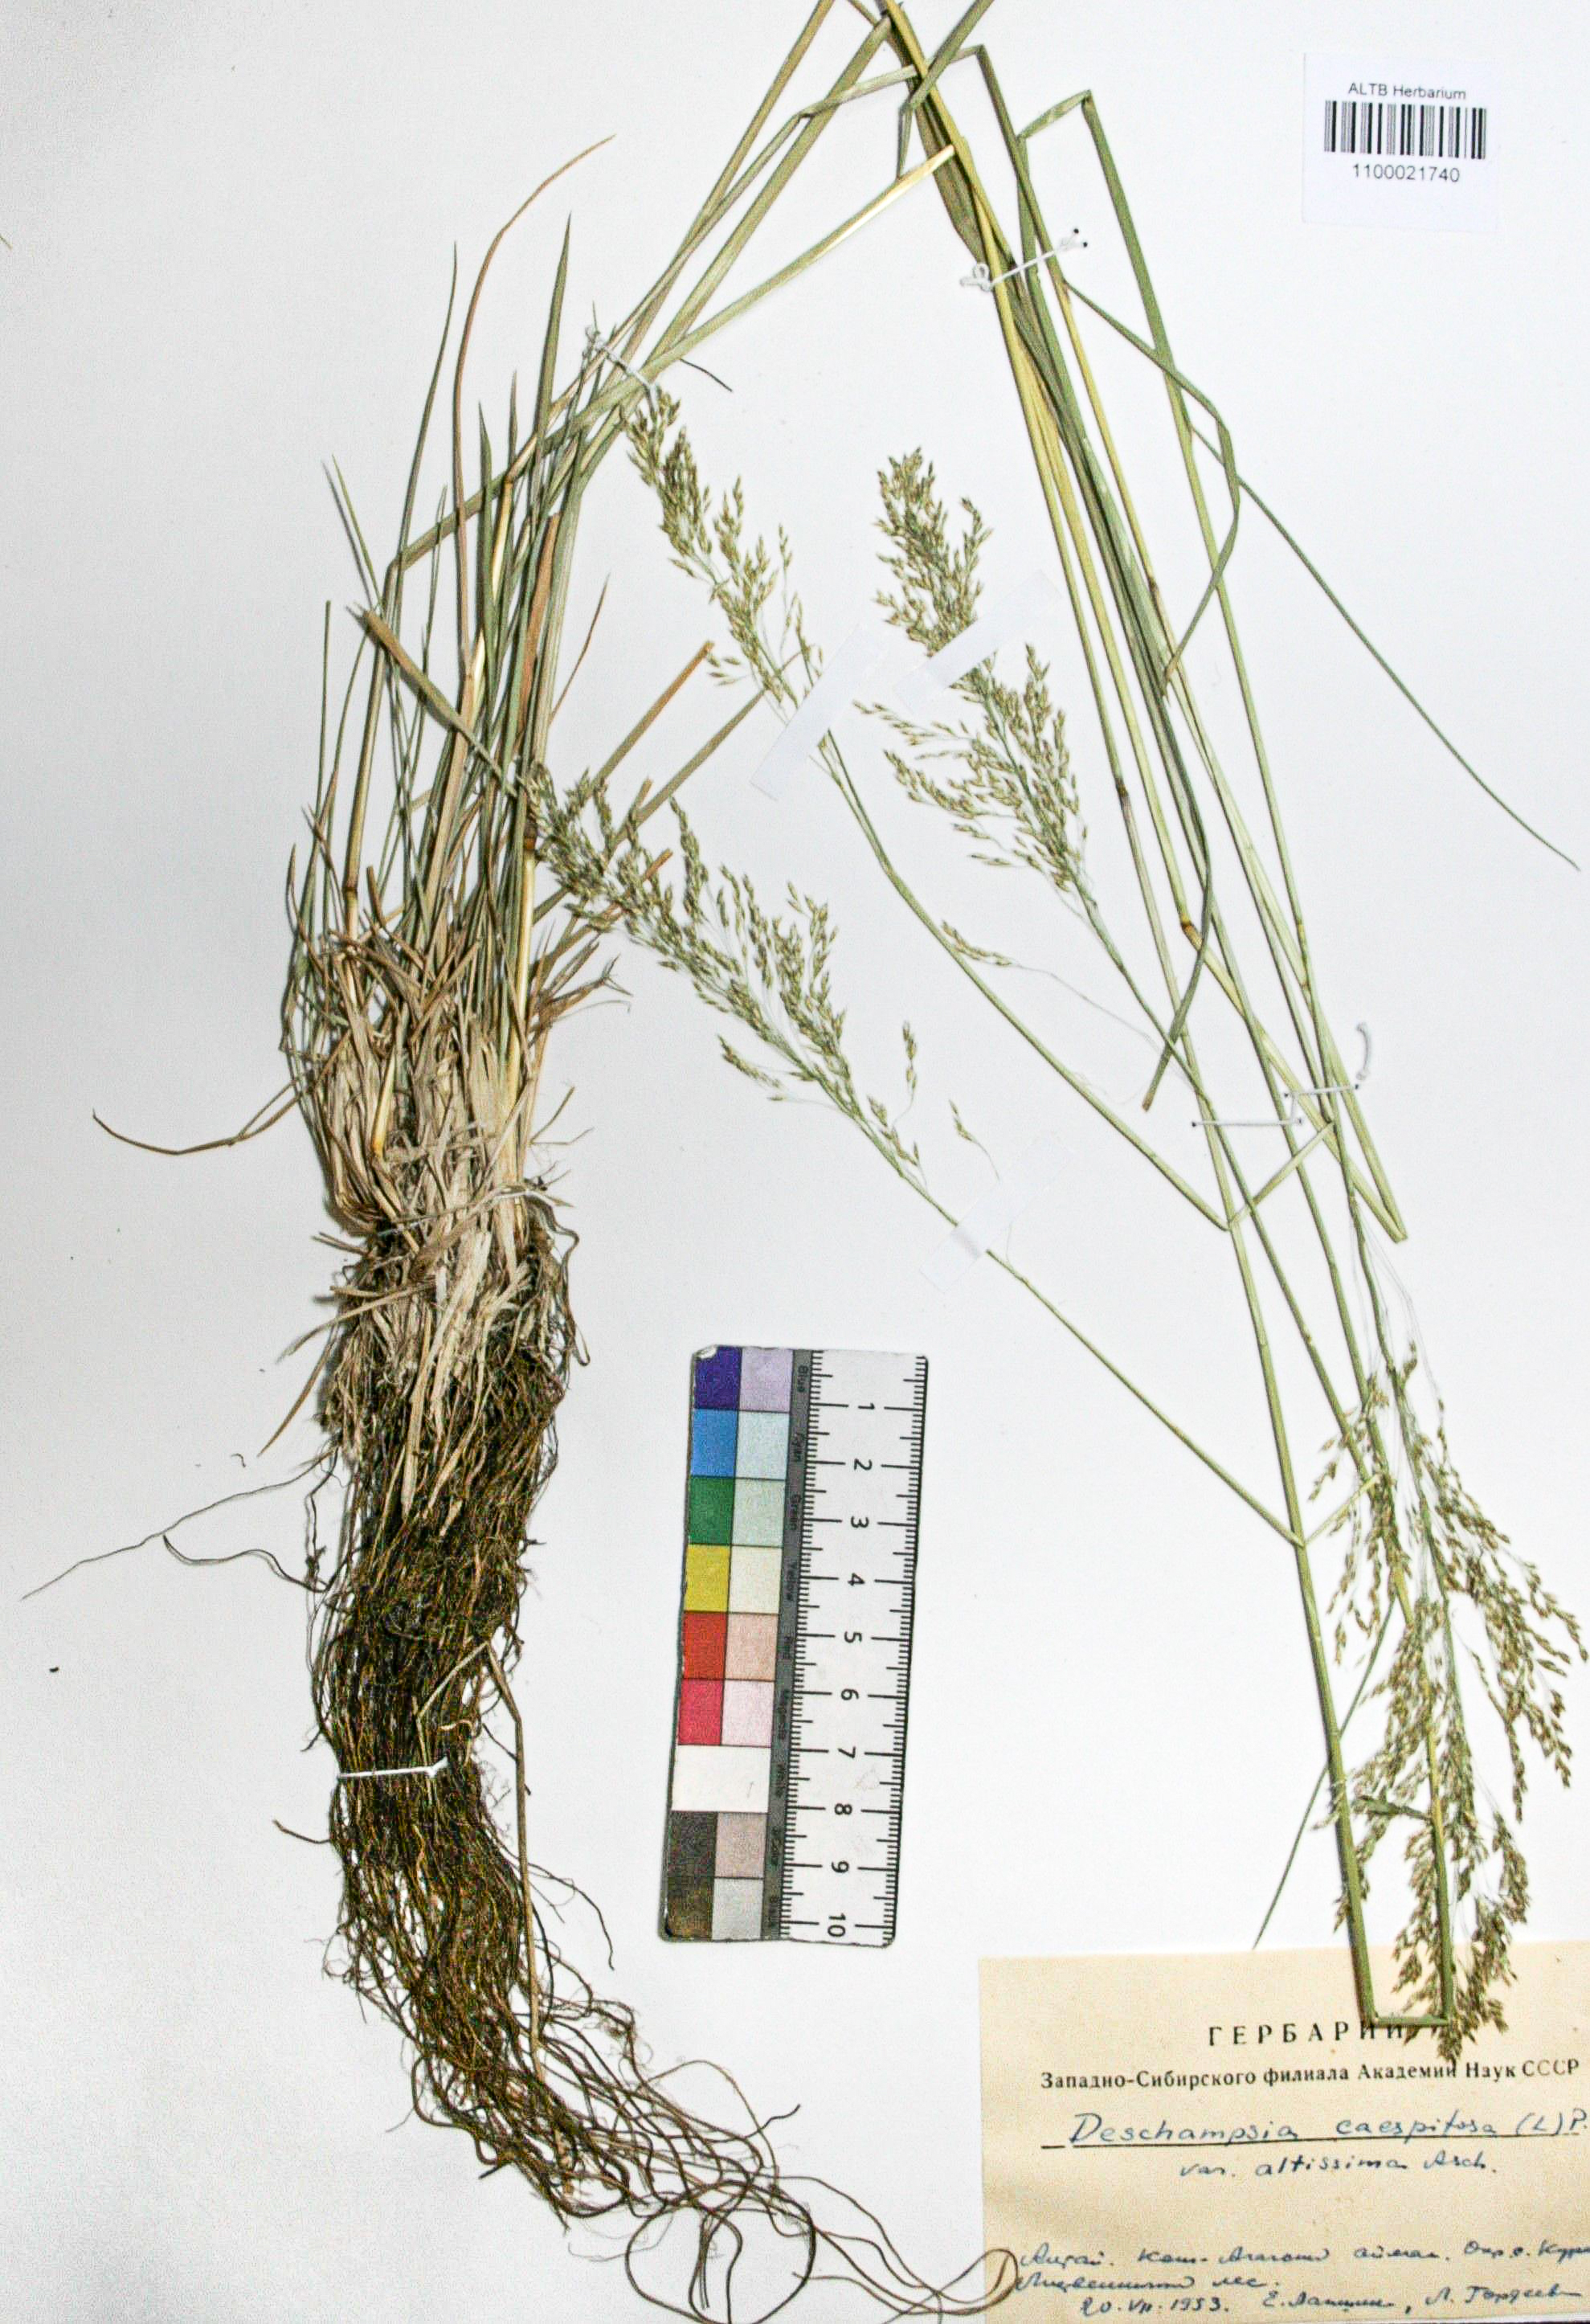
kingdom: Plantae
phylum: Tracheophyta
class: Liliopsida
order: Poales
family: Poaceae
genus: Deschampsia
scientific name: Deschampsia cespitosa
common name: Tufted hair-grass
